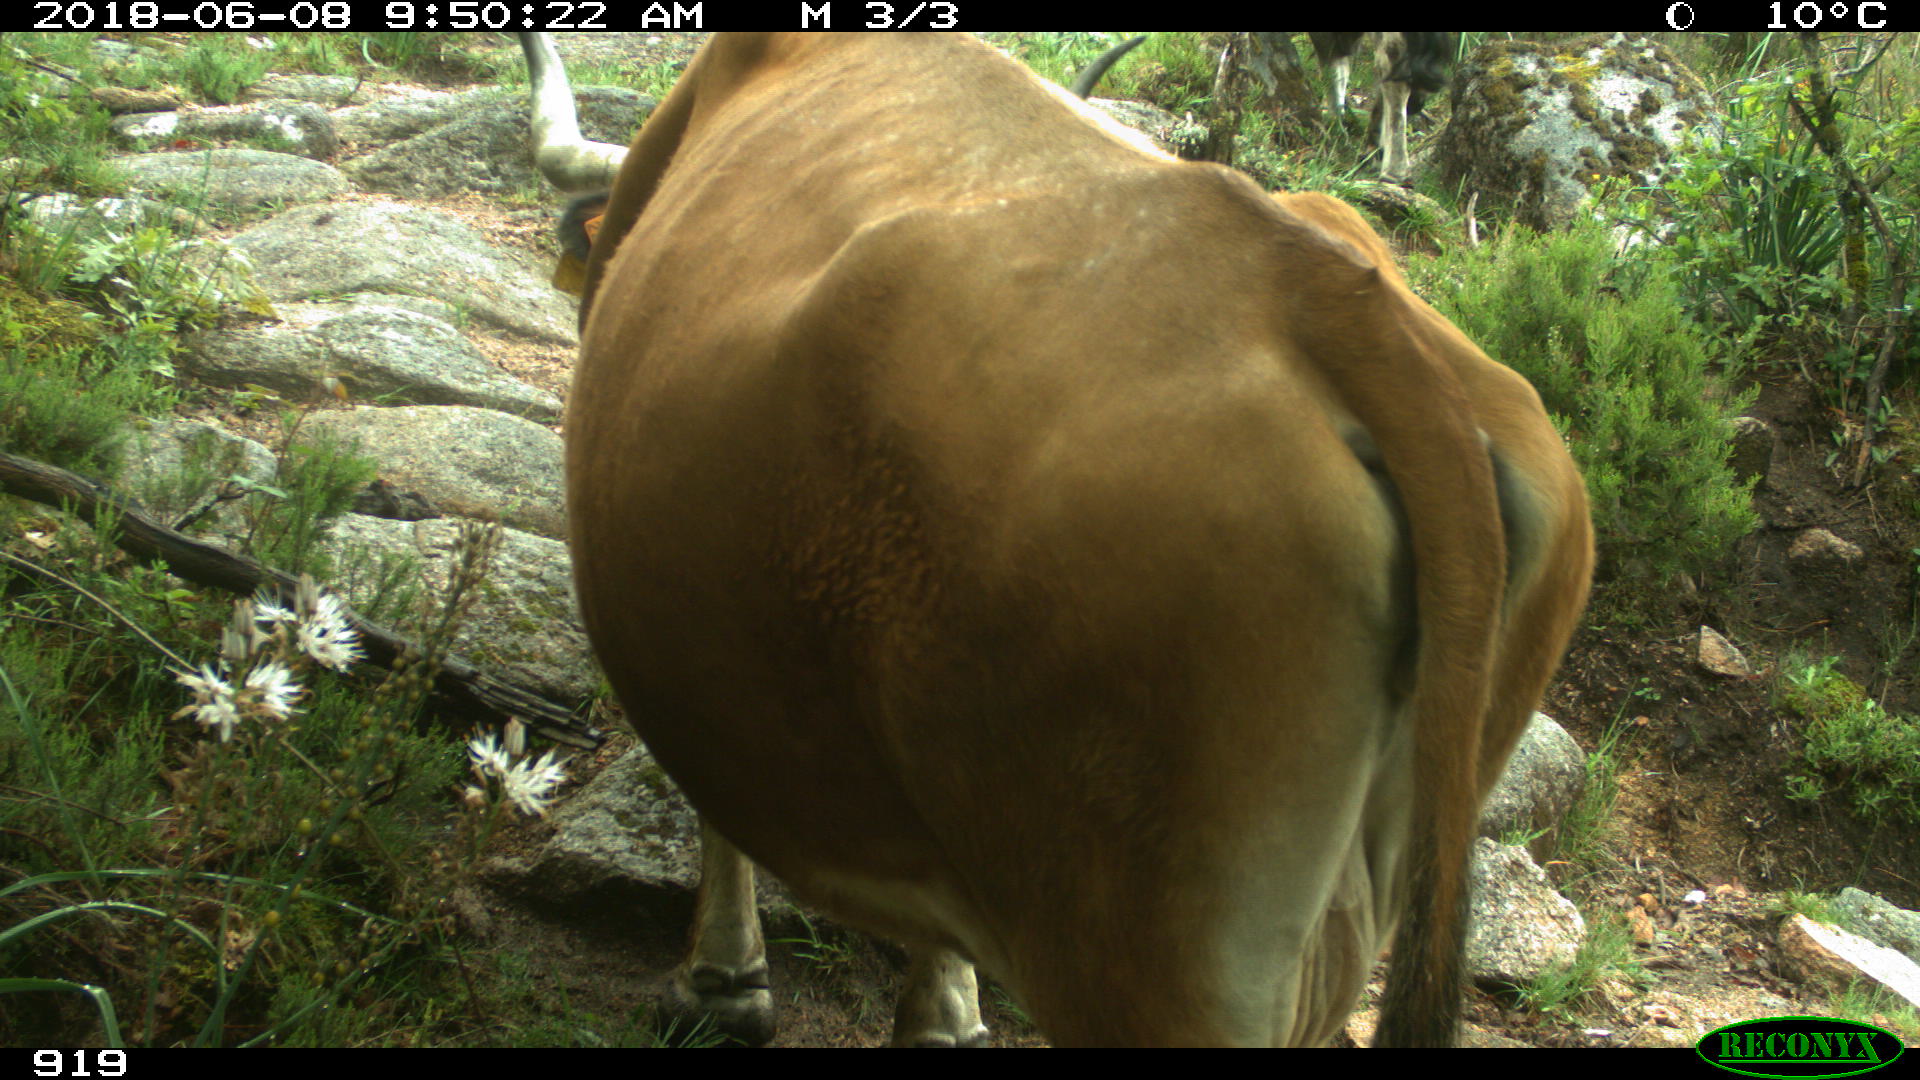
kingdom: Animalia
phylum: Chordata
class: Mammalia
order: Artiodactyla
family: Bovidae
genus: Bos
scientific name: Bos taurus
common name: Domesticated cattle
